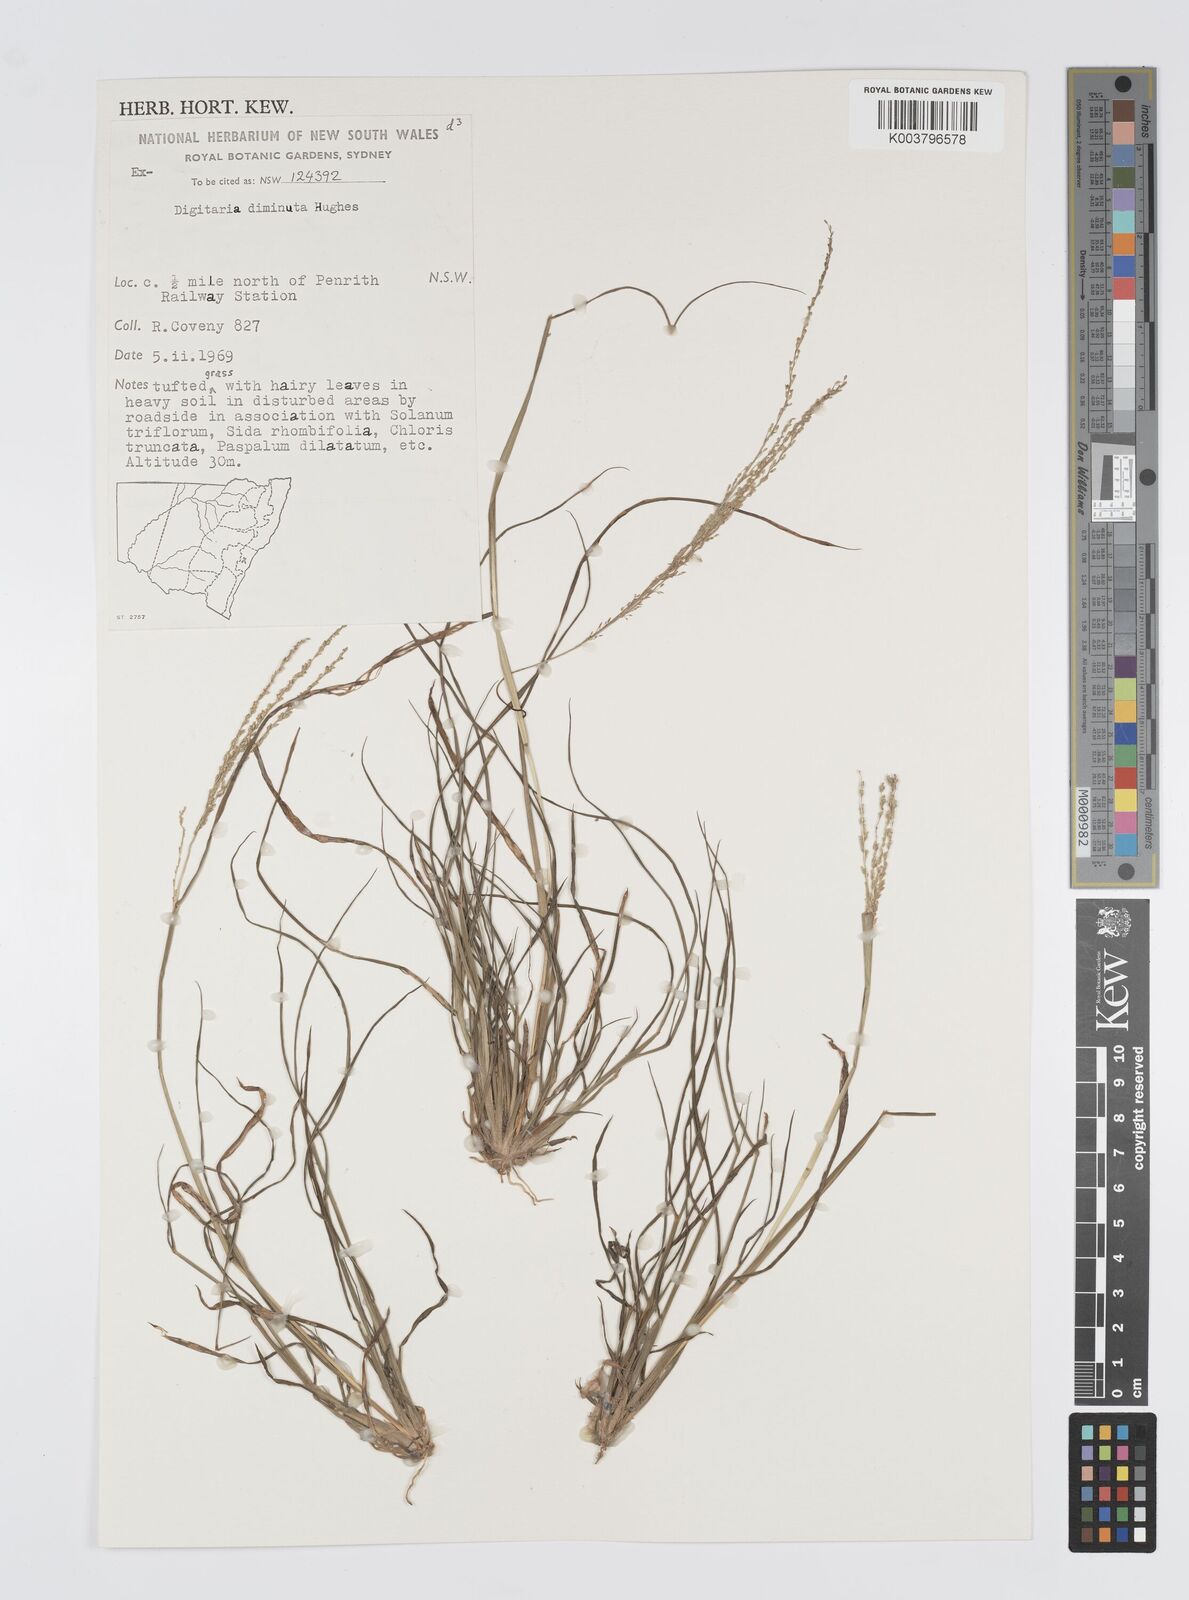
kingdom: Plantae
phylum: Tracheophyta
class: Liliopsida
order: Poales
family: Poaceae
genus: Digitaria
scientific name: Digitaria breviglumis
